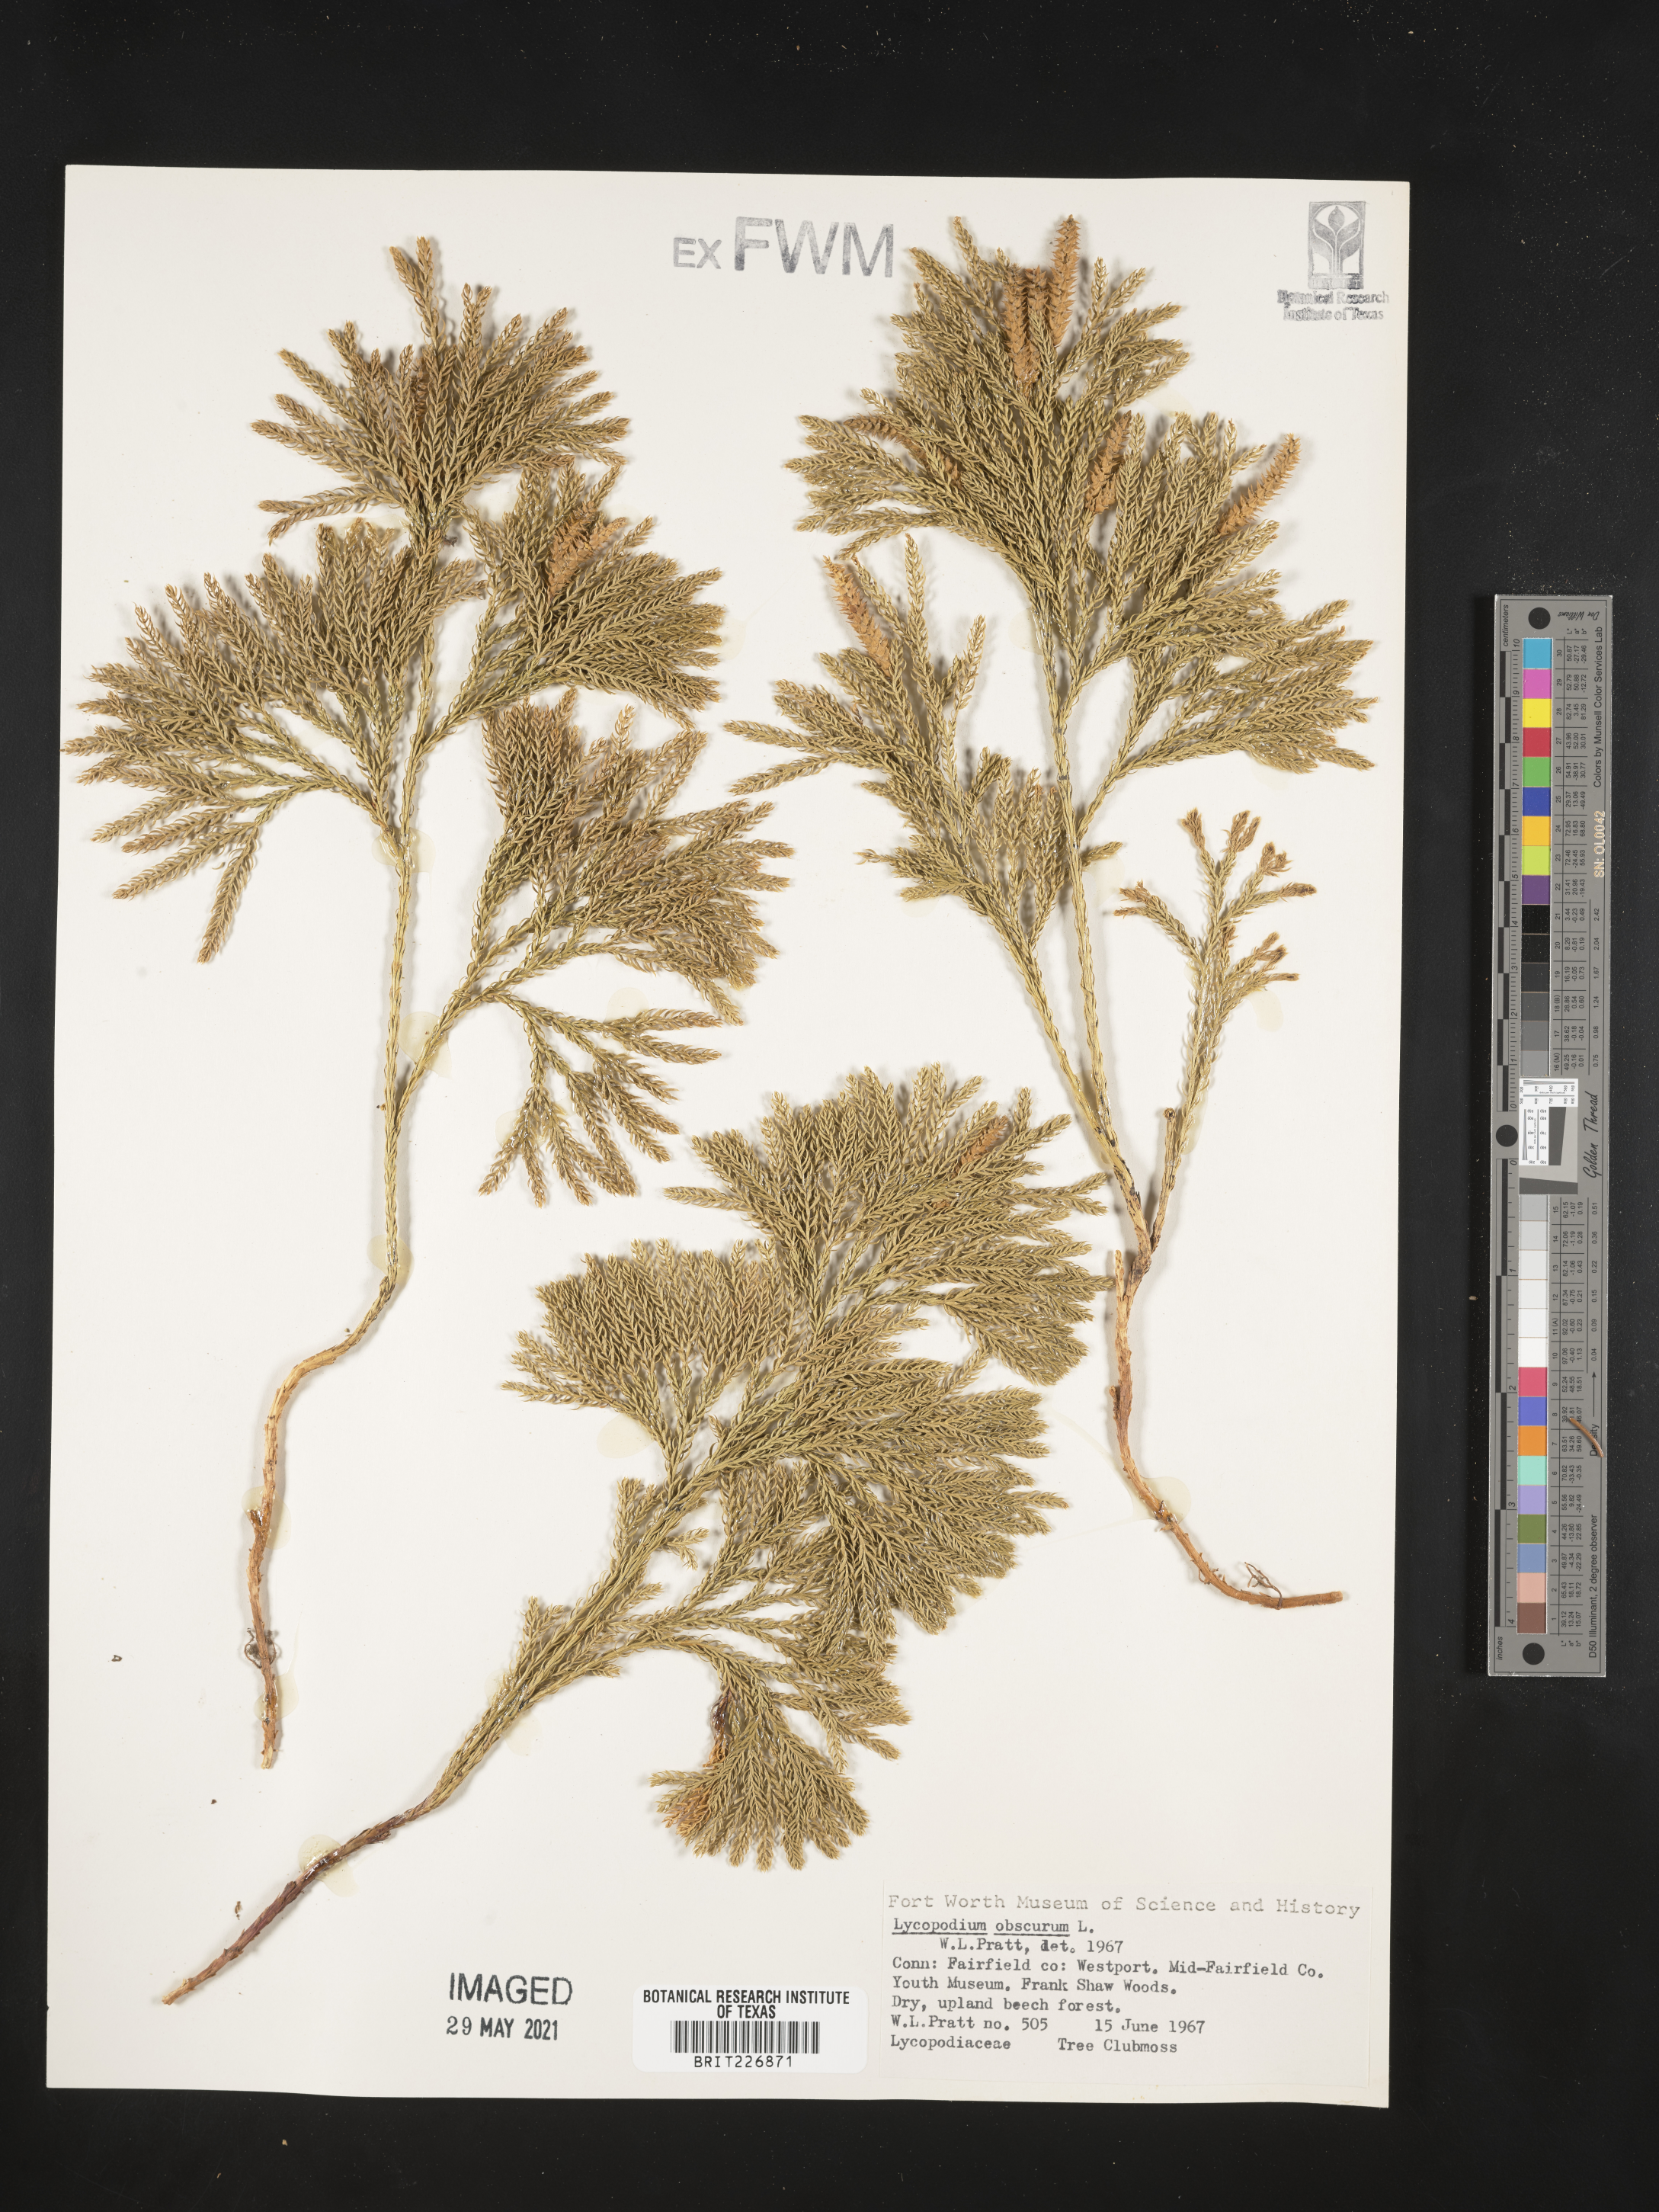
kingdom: Plantae
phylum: Tracheophyta
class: Lycopodiopsida
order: Lycopodiales
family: Lycopodiaceae
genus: Dendrolycopodium
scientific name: Dendrolycopodium obscurum
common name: Common ground-pine
